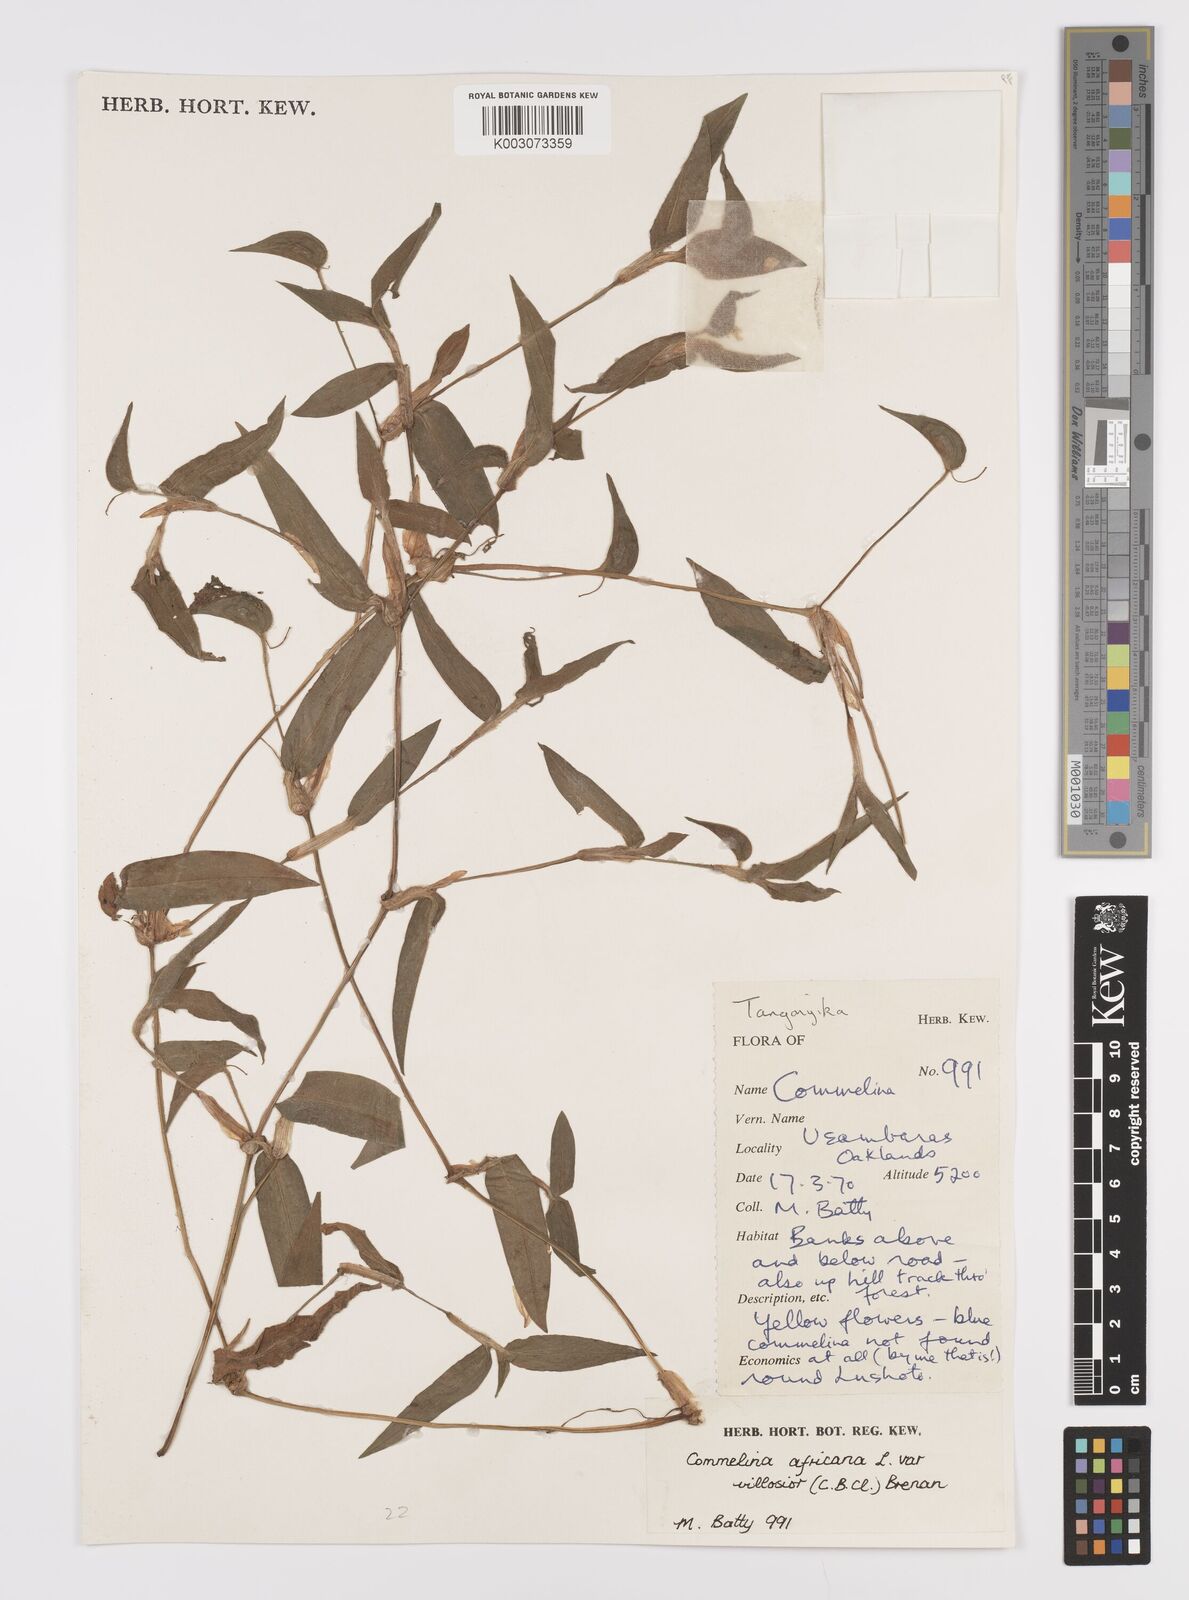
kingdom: Plantae
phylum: Tracheophyta
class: Liliopsida
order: Commelinales
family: Commelinaceae
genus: Commelina
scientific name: Commelina africana
